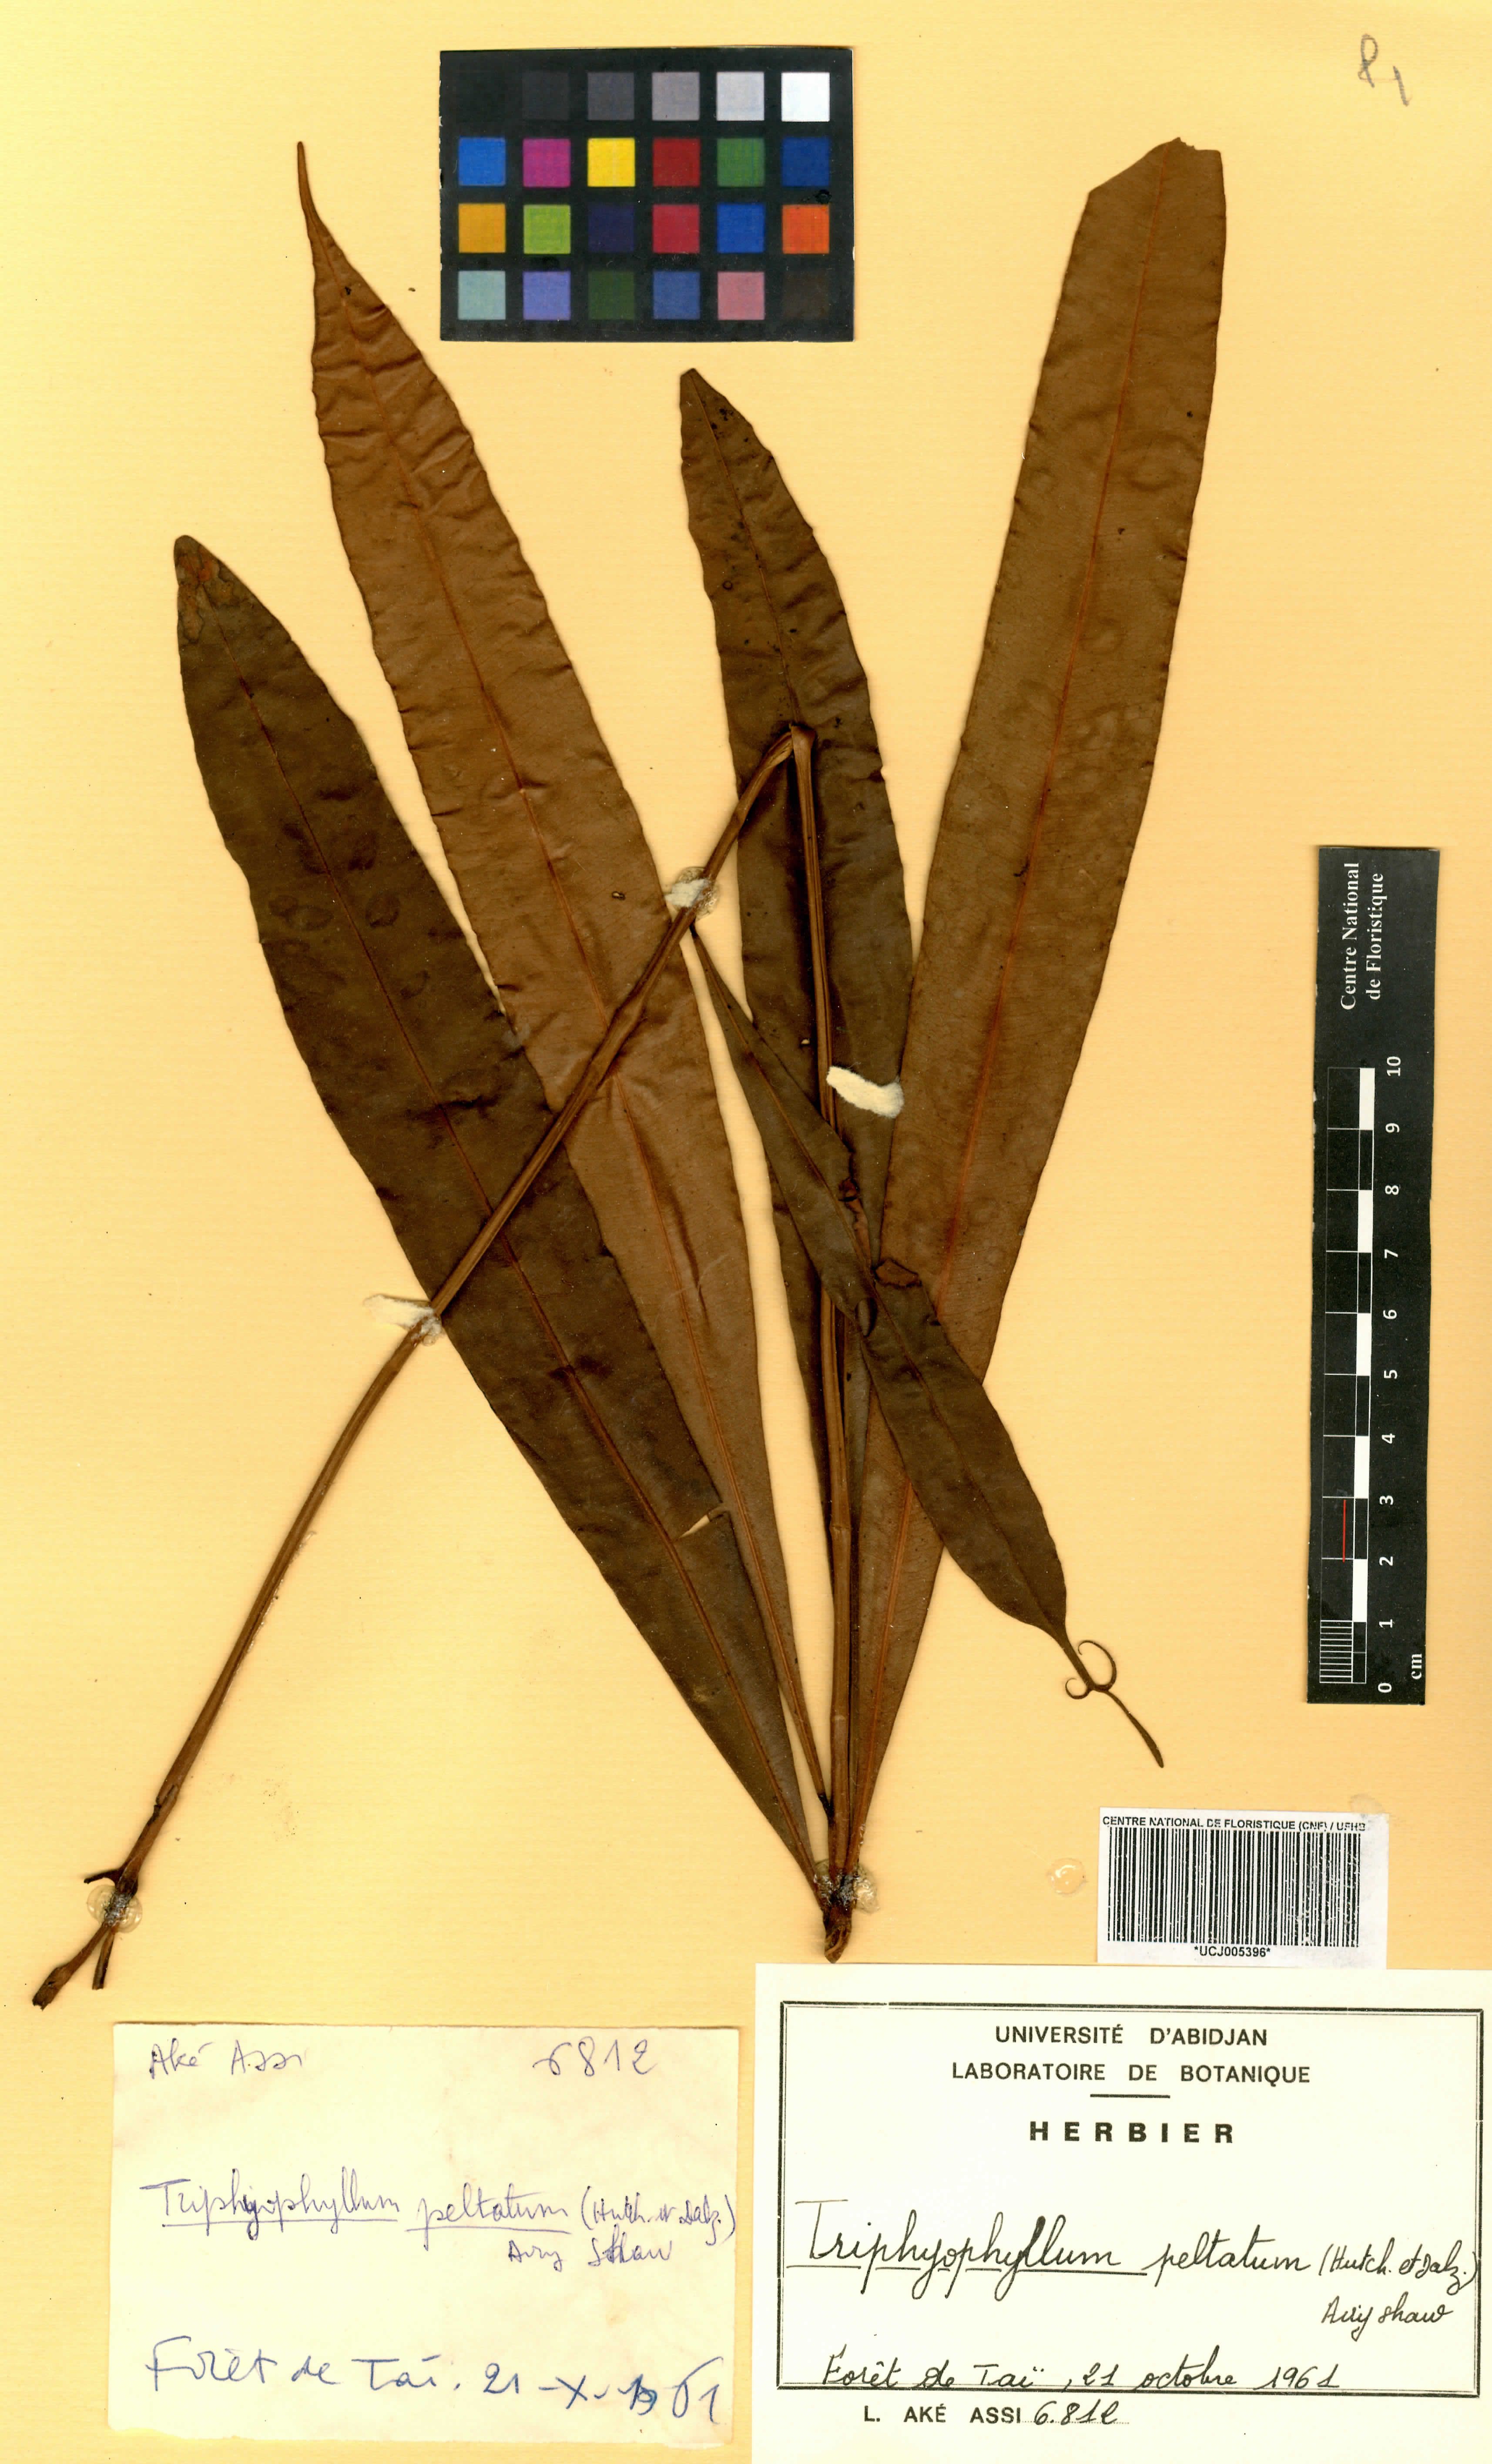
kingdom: Plantae
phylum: Tracheophyta
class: Magnoliopsida
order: Caryophyllales
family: Dioncophyllaceae
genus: Triphyophyllum
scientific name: Triphyophyllum peltatum
